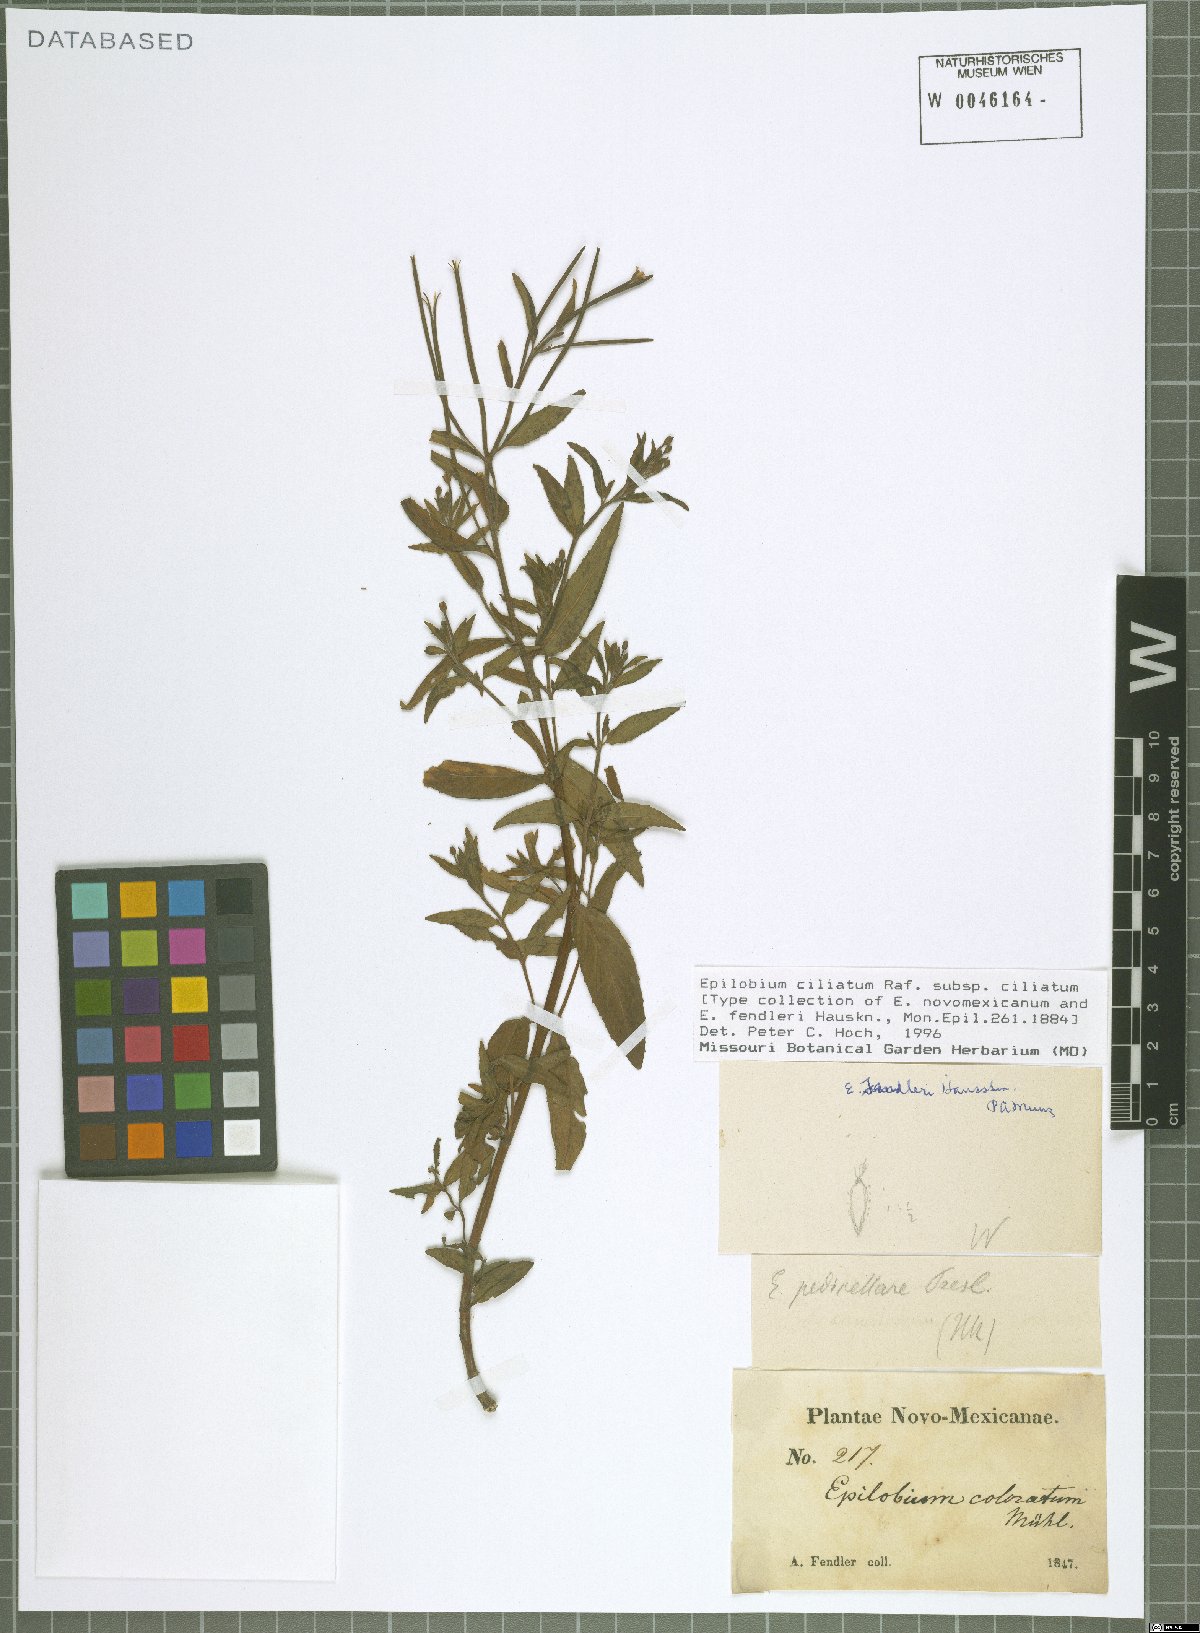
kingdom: Plantae
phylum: Tracheophyta
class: Magnoliopsida
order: Myrtales
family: Onagraceae
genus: Epilobium
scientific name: Epilobium ciliatum
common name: American willowherb
